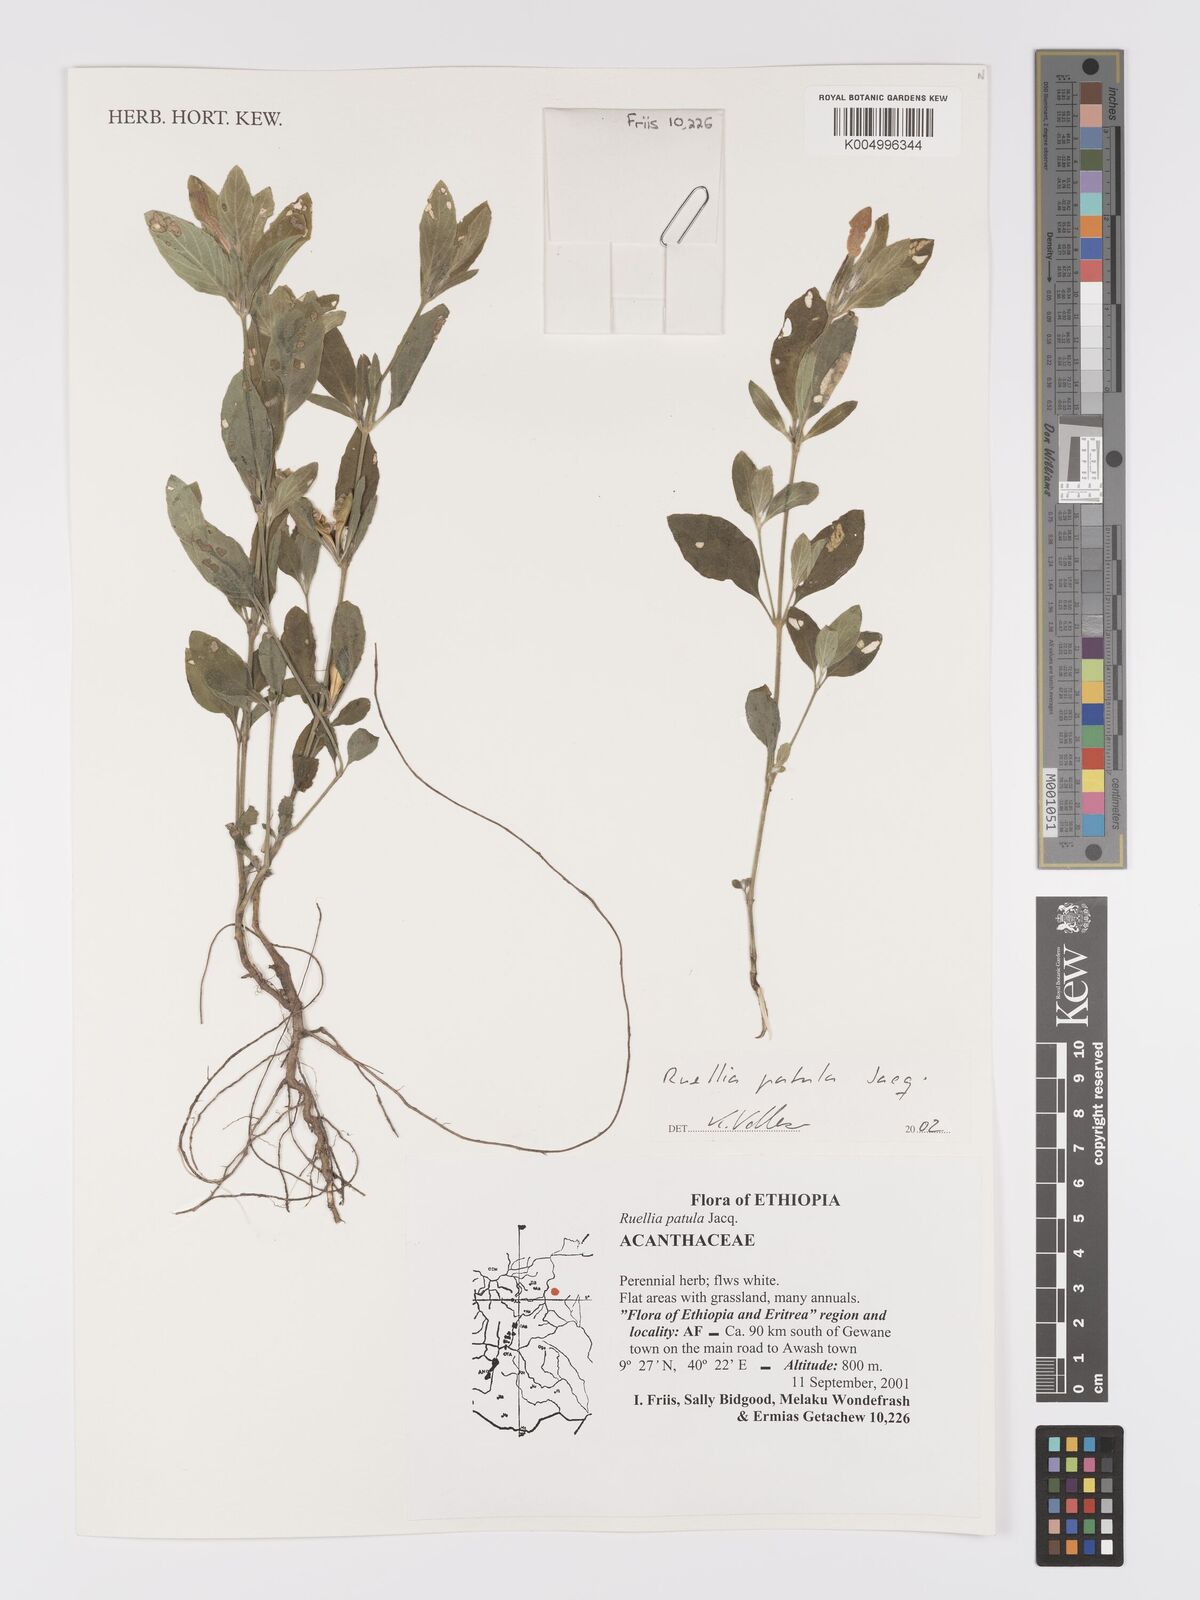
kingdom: Plantae
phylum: Tracheophyta
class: Magnoliopsida
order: Lamiales
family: Acanthaceae
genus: Ruellia
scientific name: Ruellia patula
